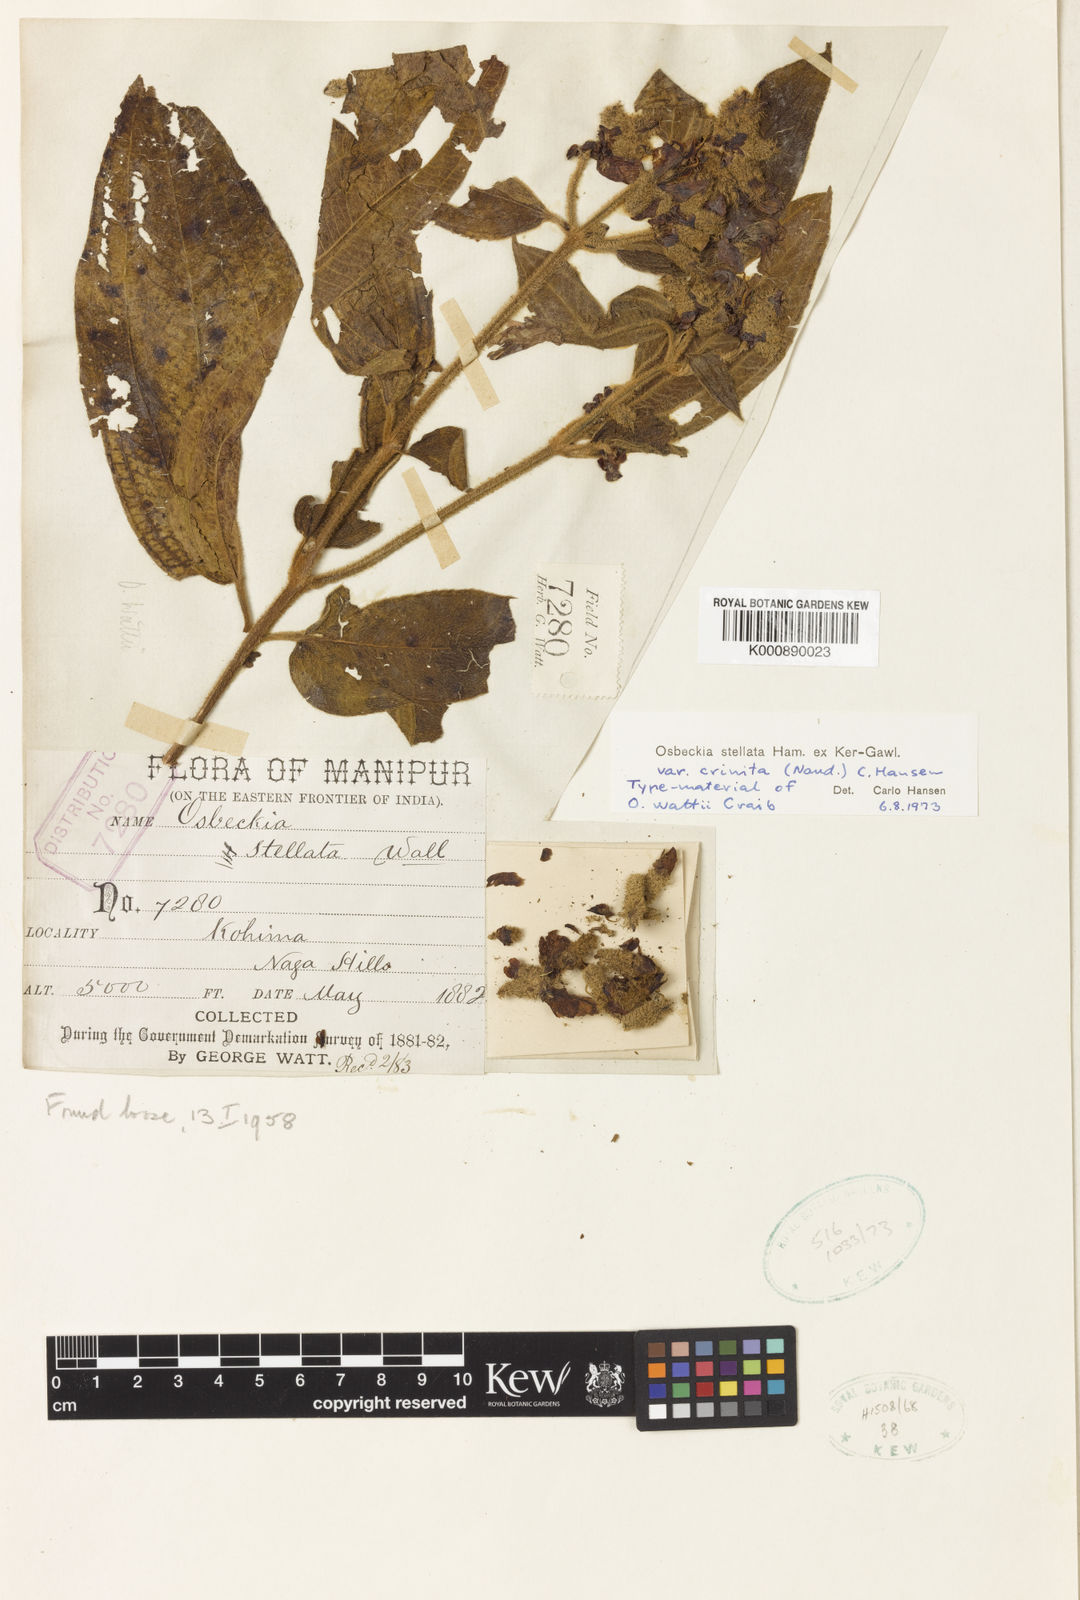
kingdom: Plantae
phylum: Tracheophyta
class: Magnoliopsida
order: Myrtales
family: Melastomataceae
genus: Osbeckia
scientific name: Osbeckia crinita
